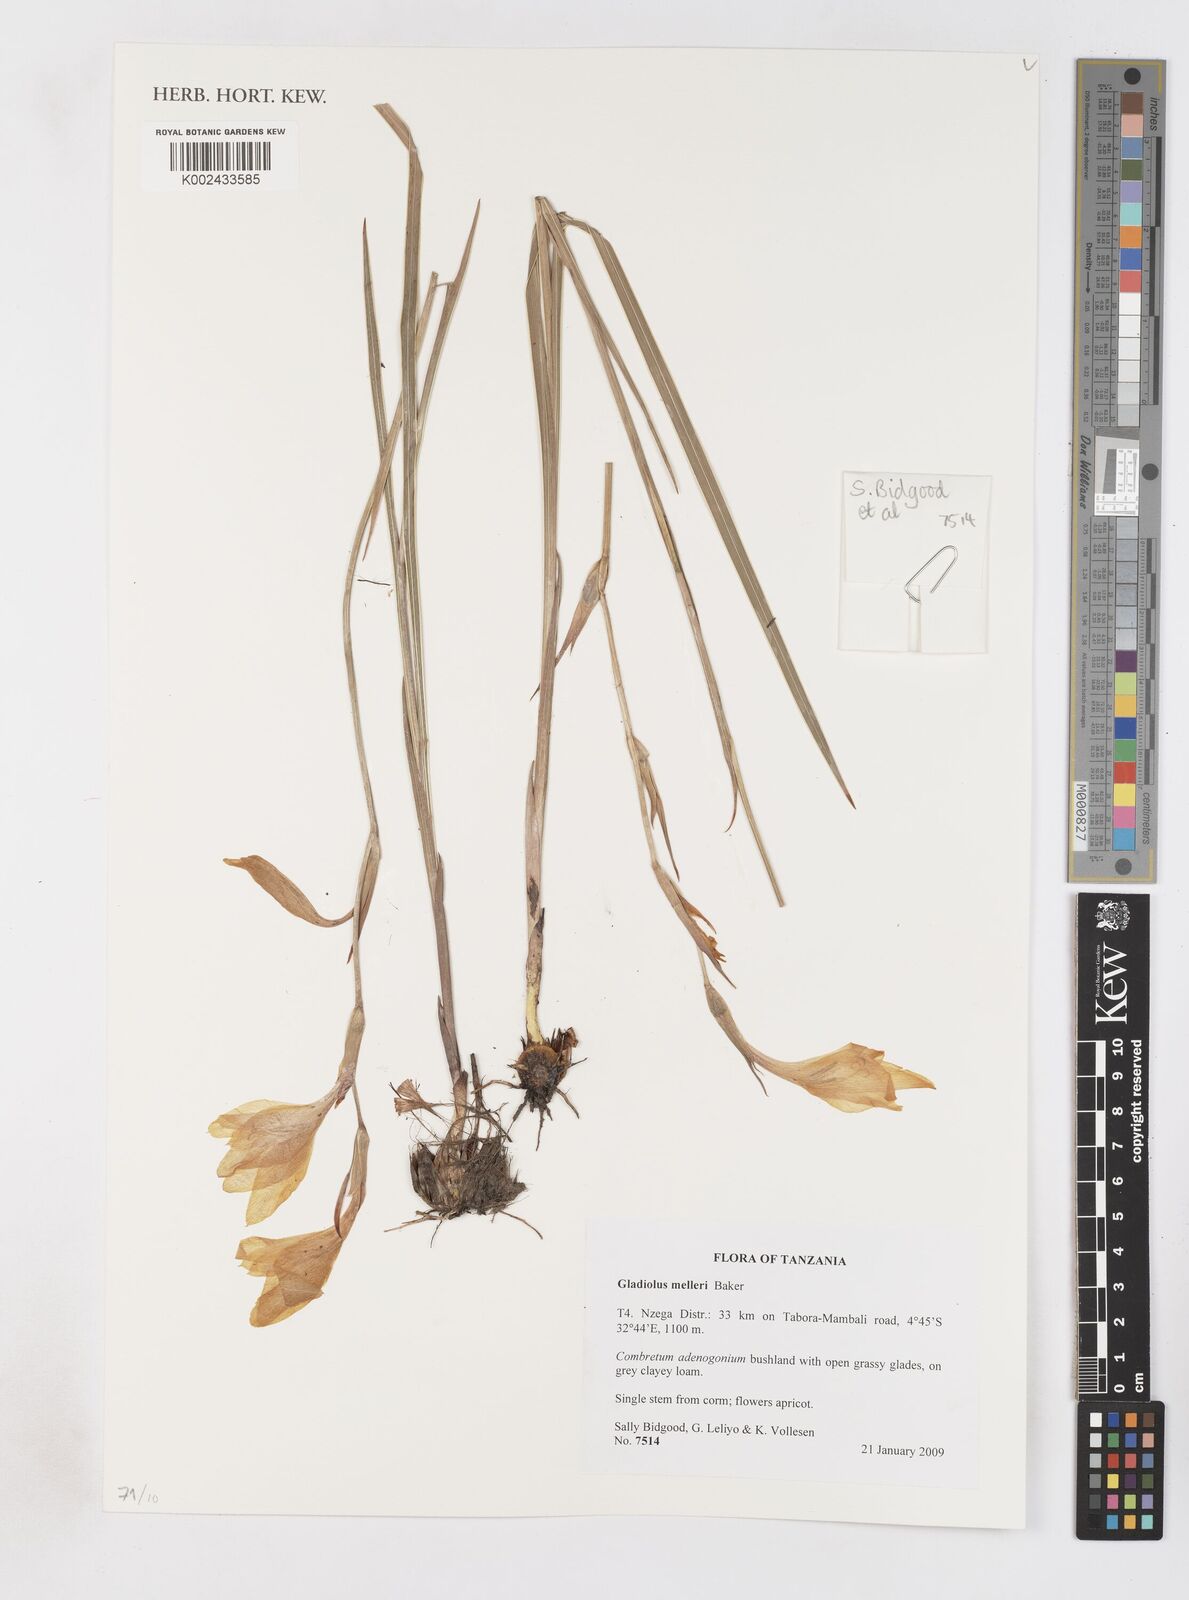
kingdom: Plantae
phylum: Tracheophyta
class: Liliopsida
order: Asparagales
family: Iridaceae
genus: Gladiolus
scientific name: Gladiolus melleri
